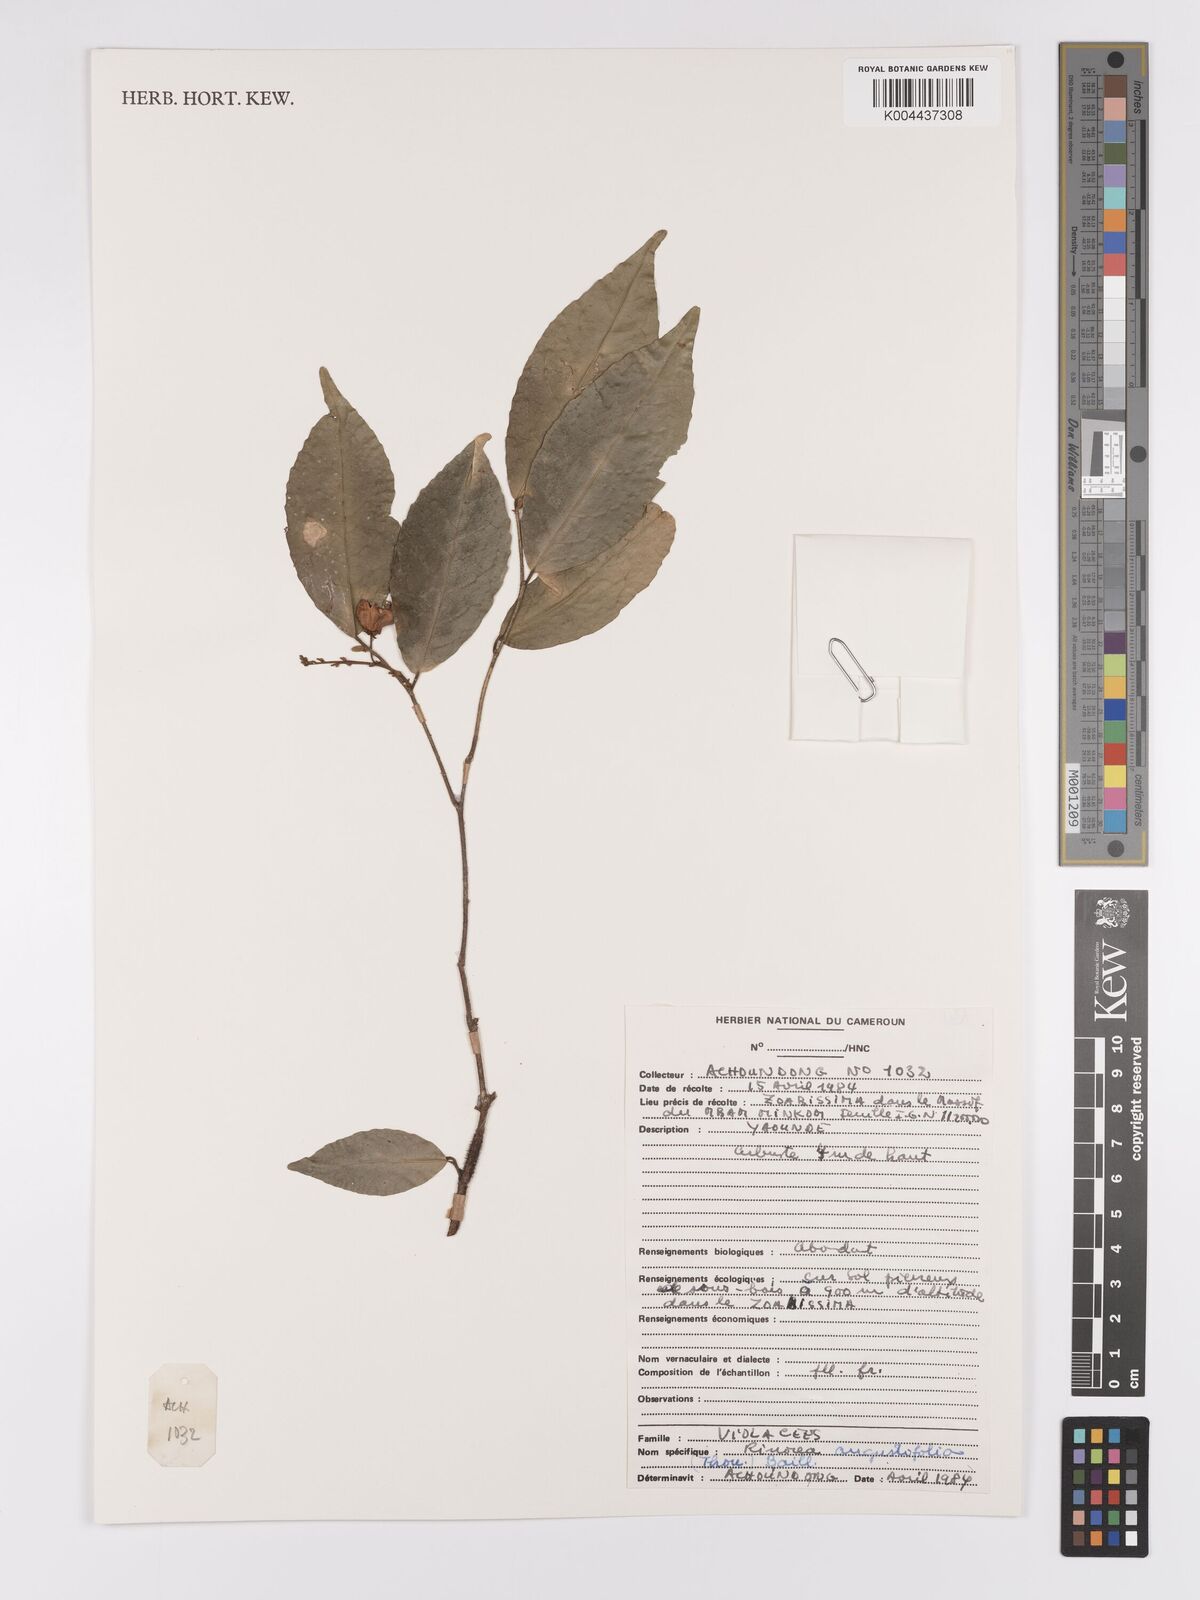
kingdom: Plantae
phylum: Tracheophyta
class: Magnoliopsida
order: Malpighiales
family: Violaceae
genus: Rinorea
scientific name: Rinorea angustifolia
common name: White violet-bush
